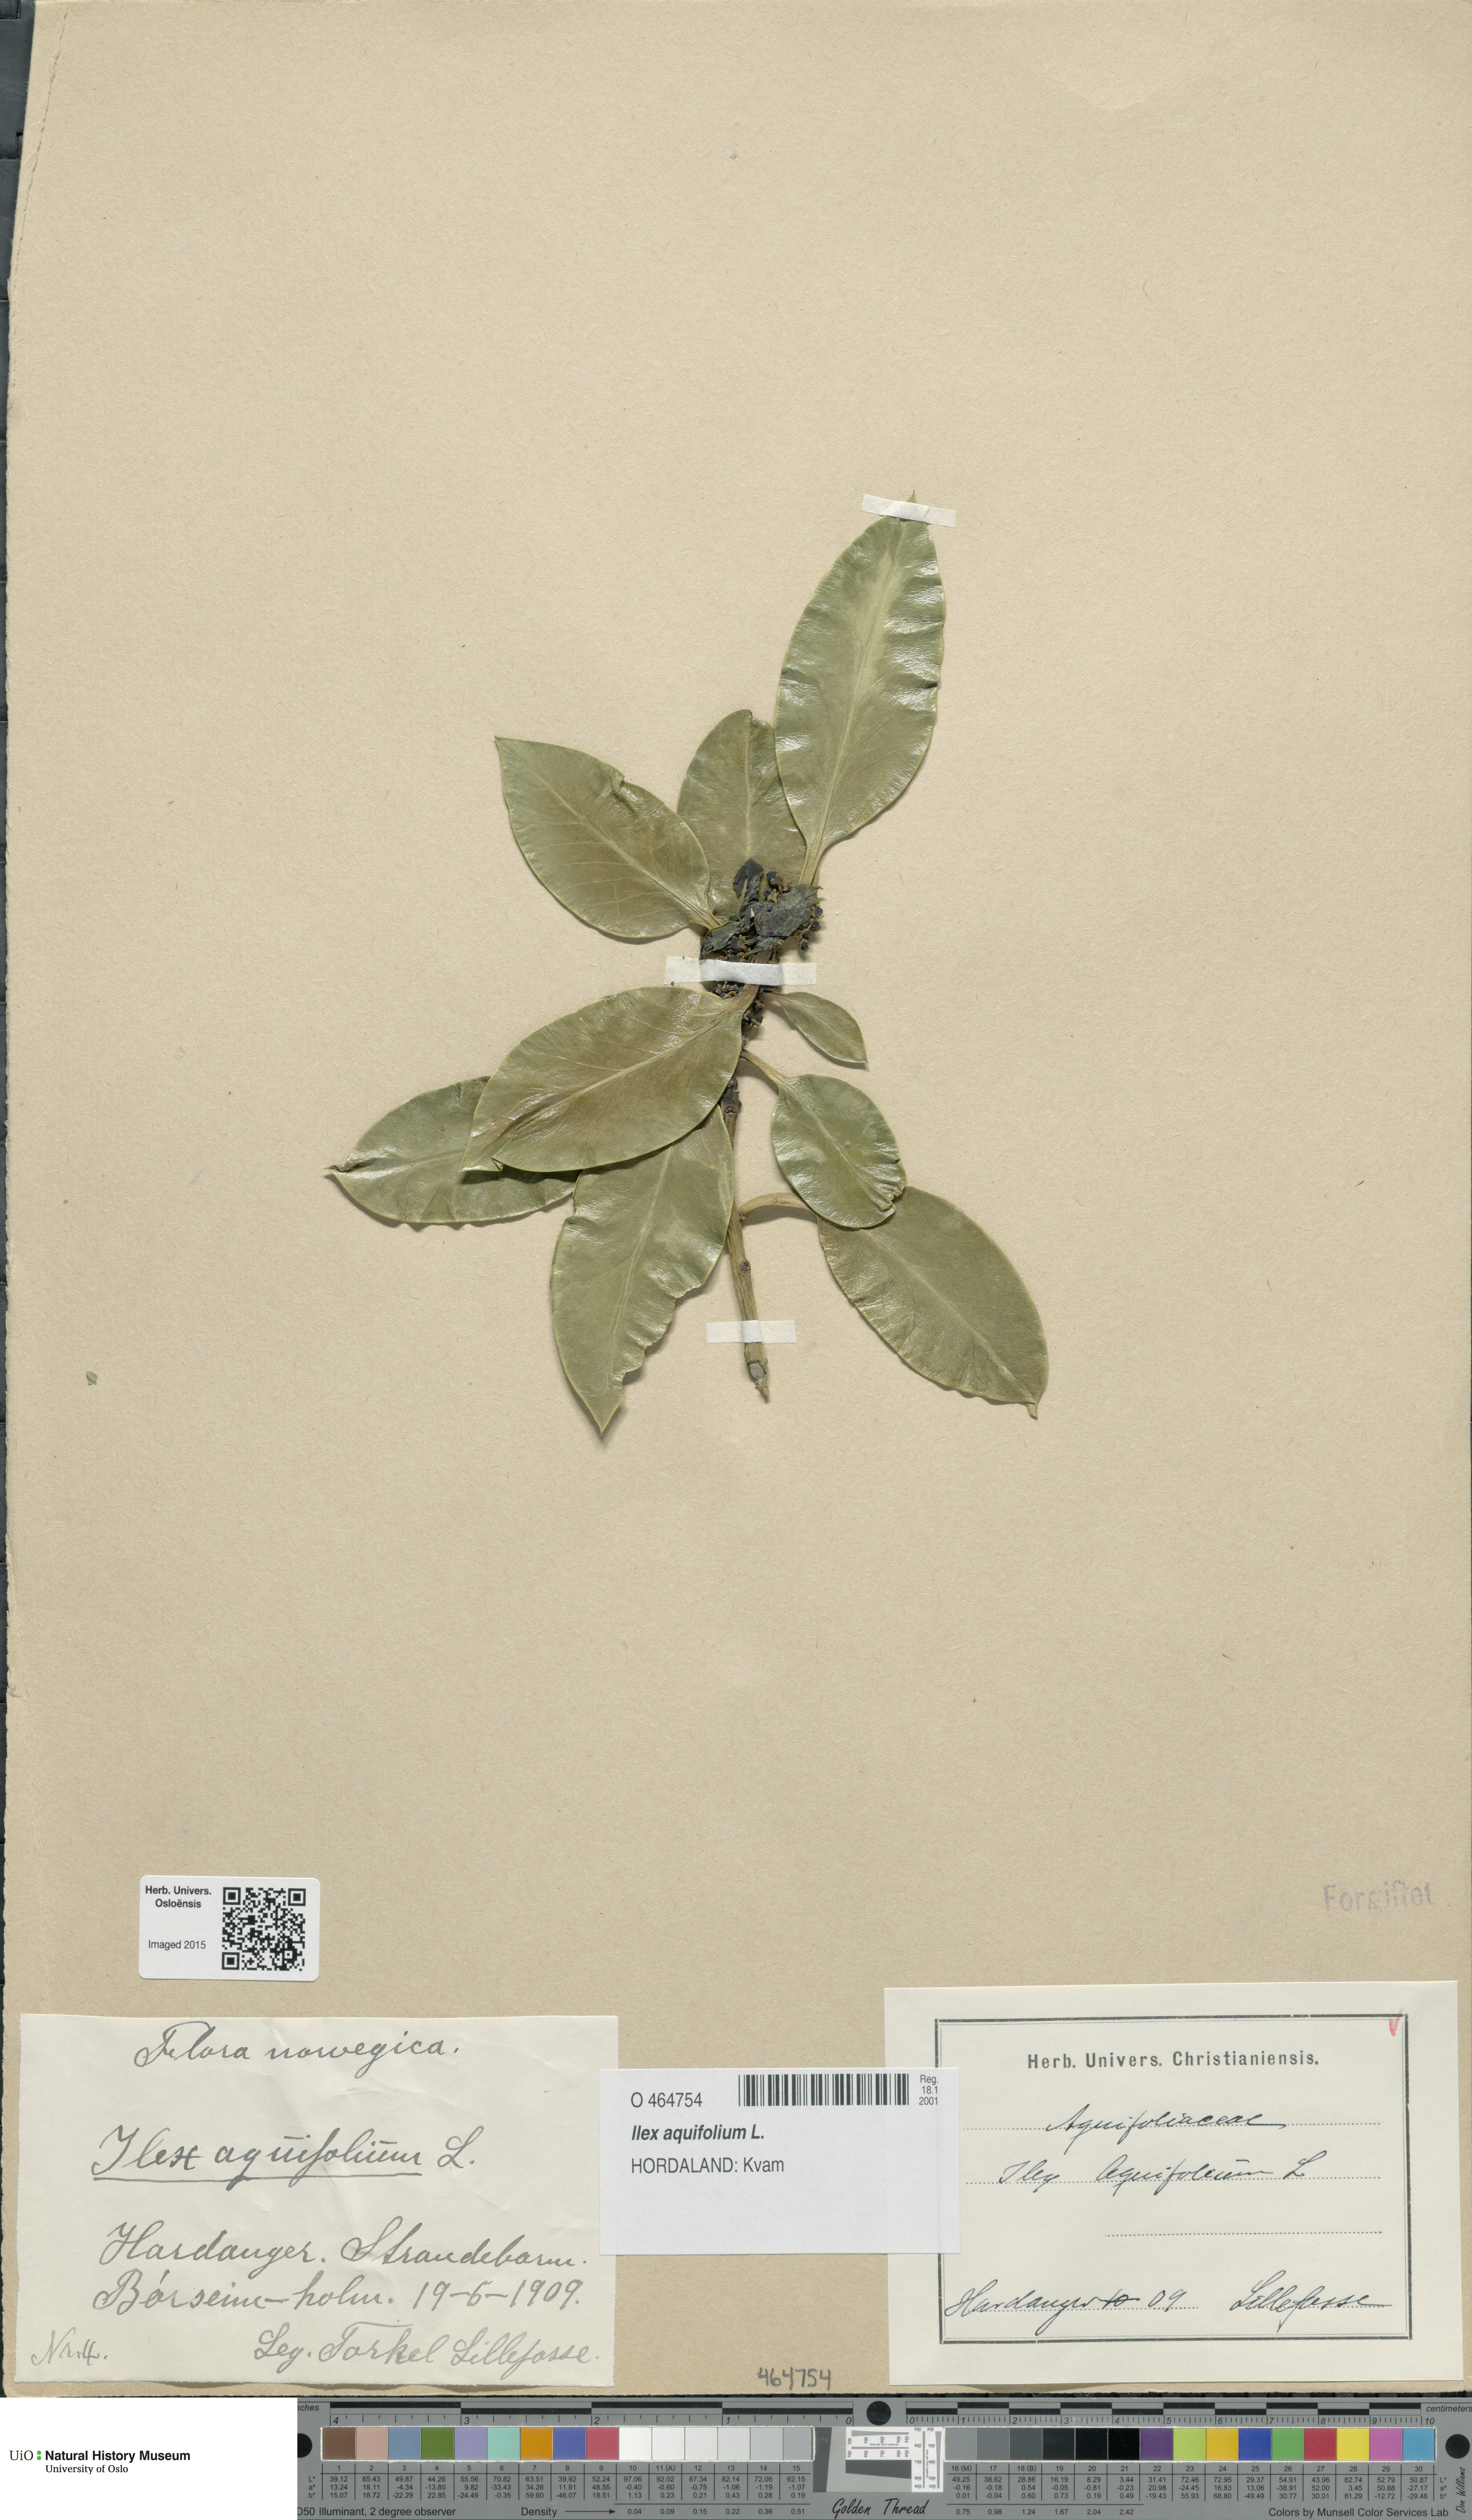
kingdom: Plantae
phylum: Tracheophyta
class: Magnoliopsida
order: Aquifoliales
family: Aquifoliaceae
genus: Ilex
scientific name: Ilex aquifolium
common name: English holly
